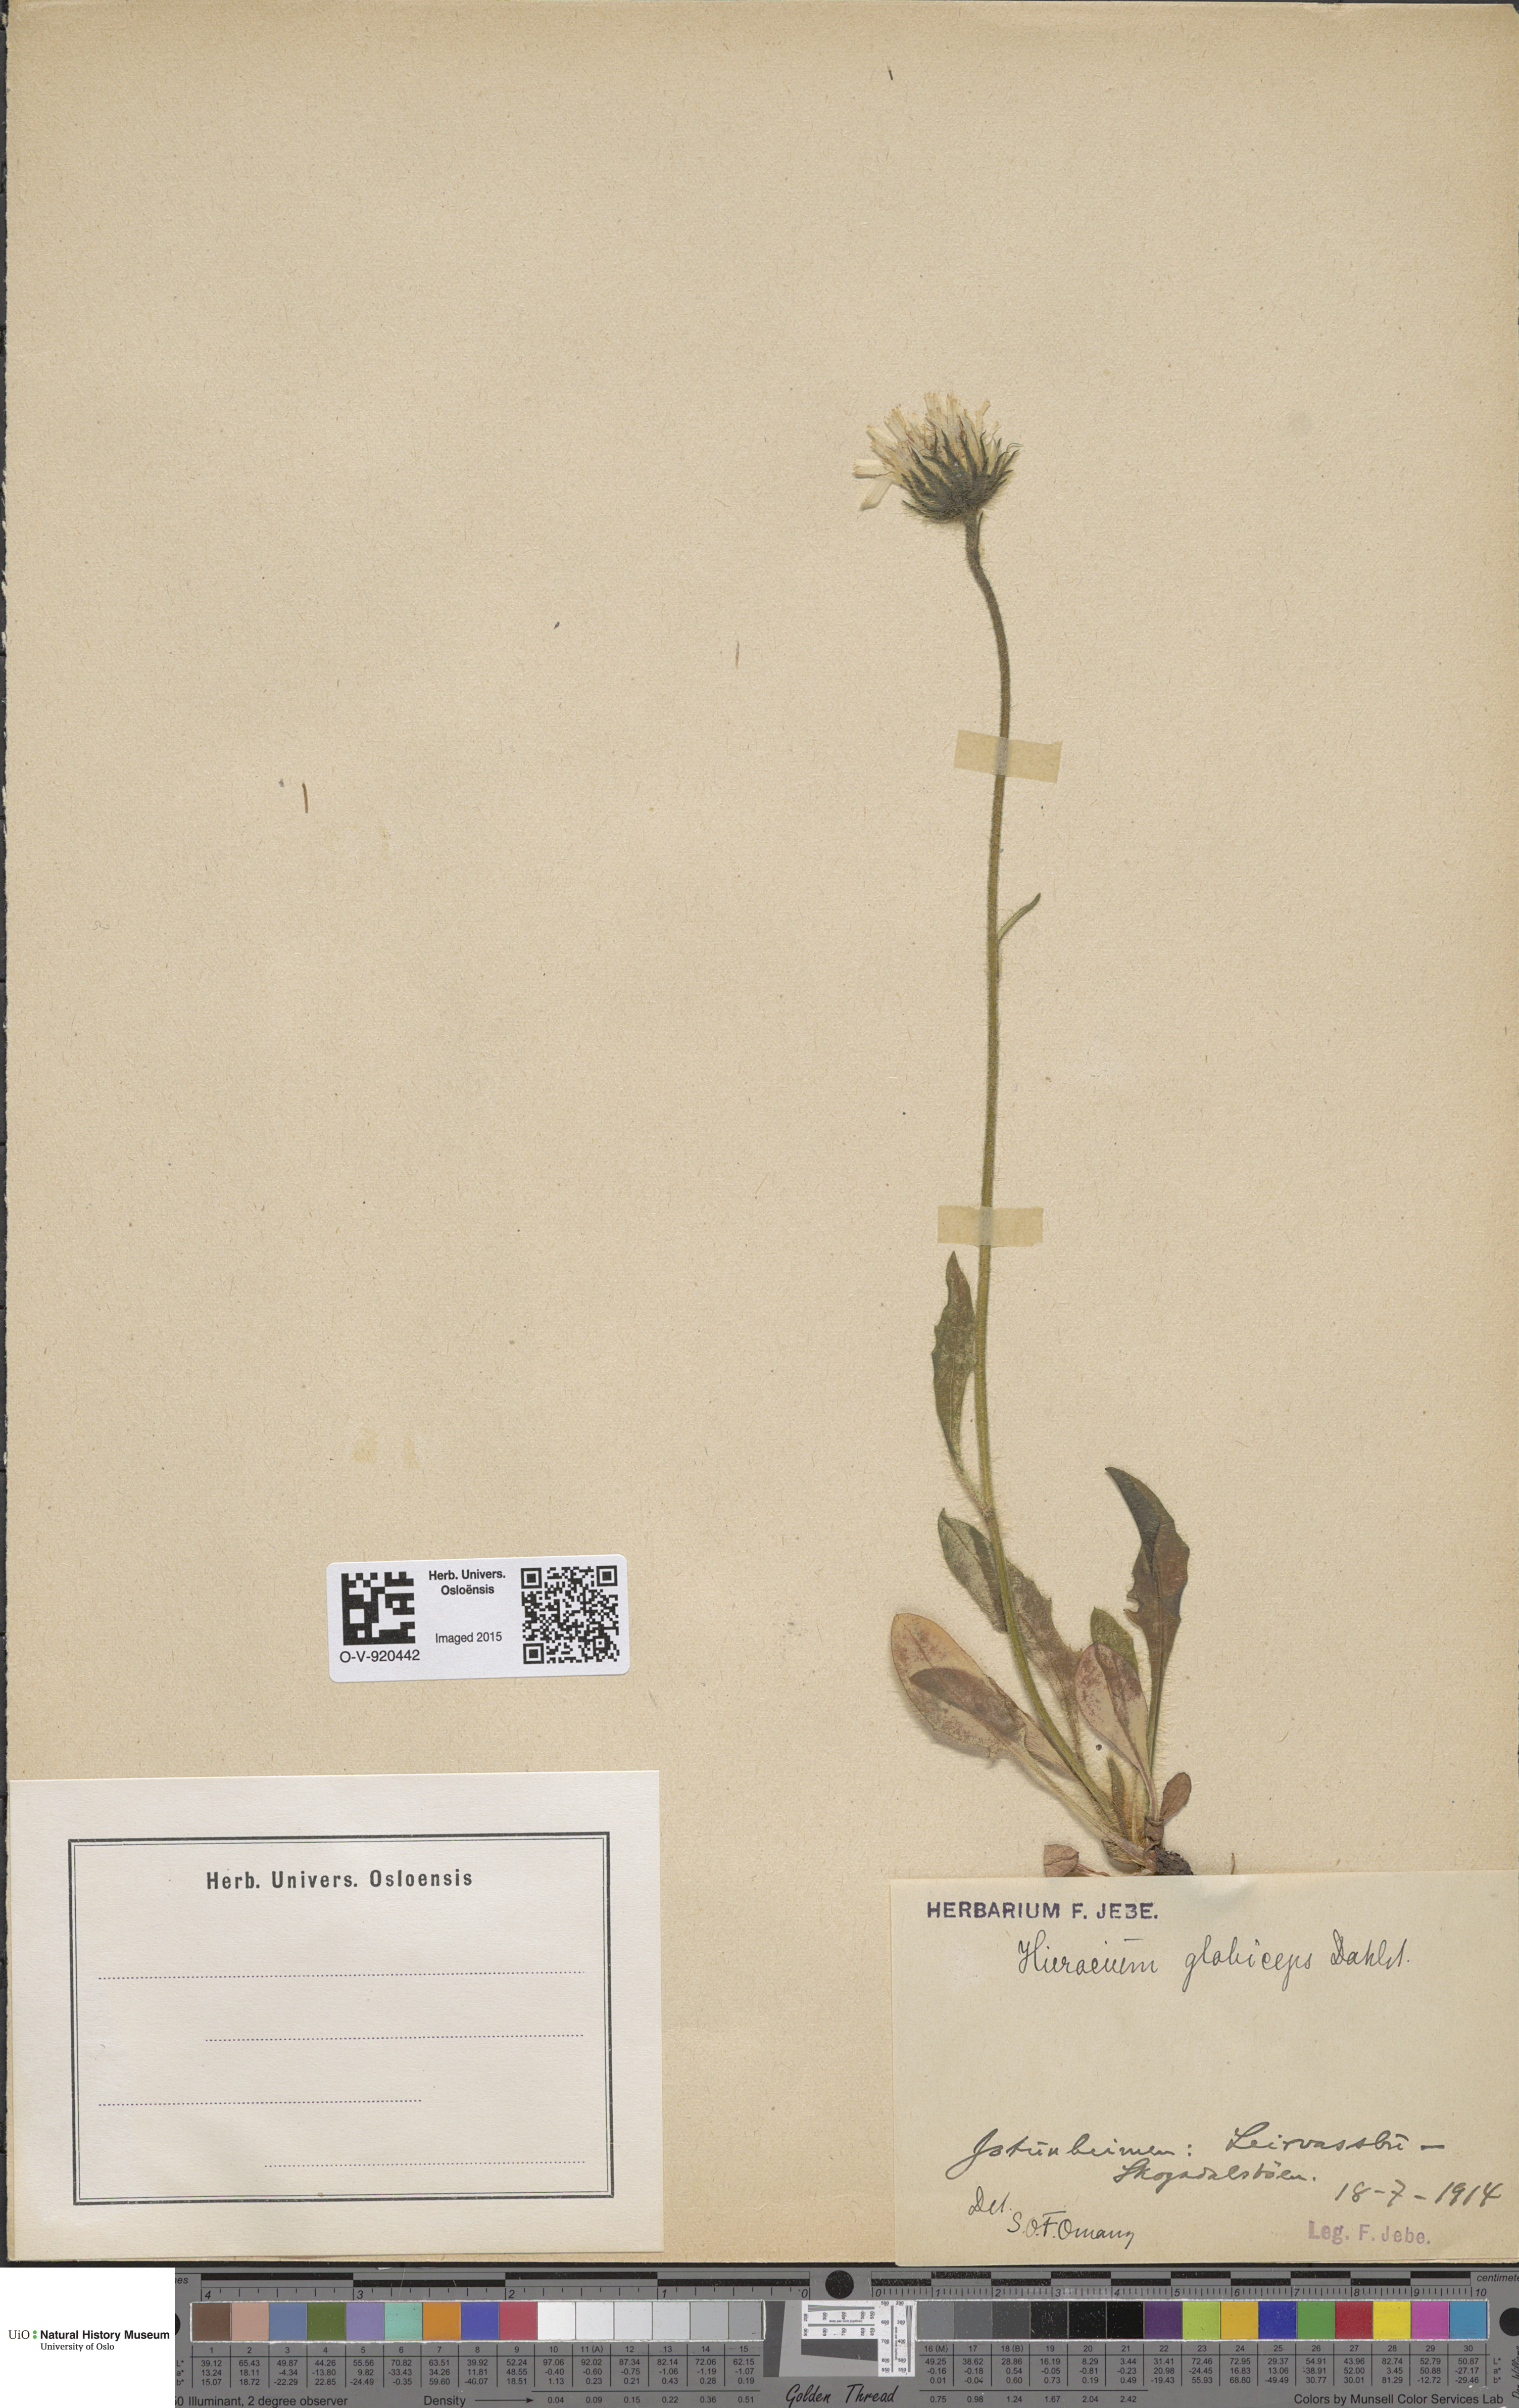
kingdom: Plantae
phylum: Tracheophyta
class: Magnoliopsida
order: Asterales
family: Asteraceae
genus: Hieracium
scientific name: Hieracium alpinum
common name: Alpine hawkweed
